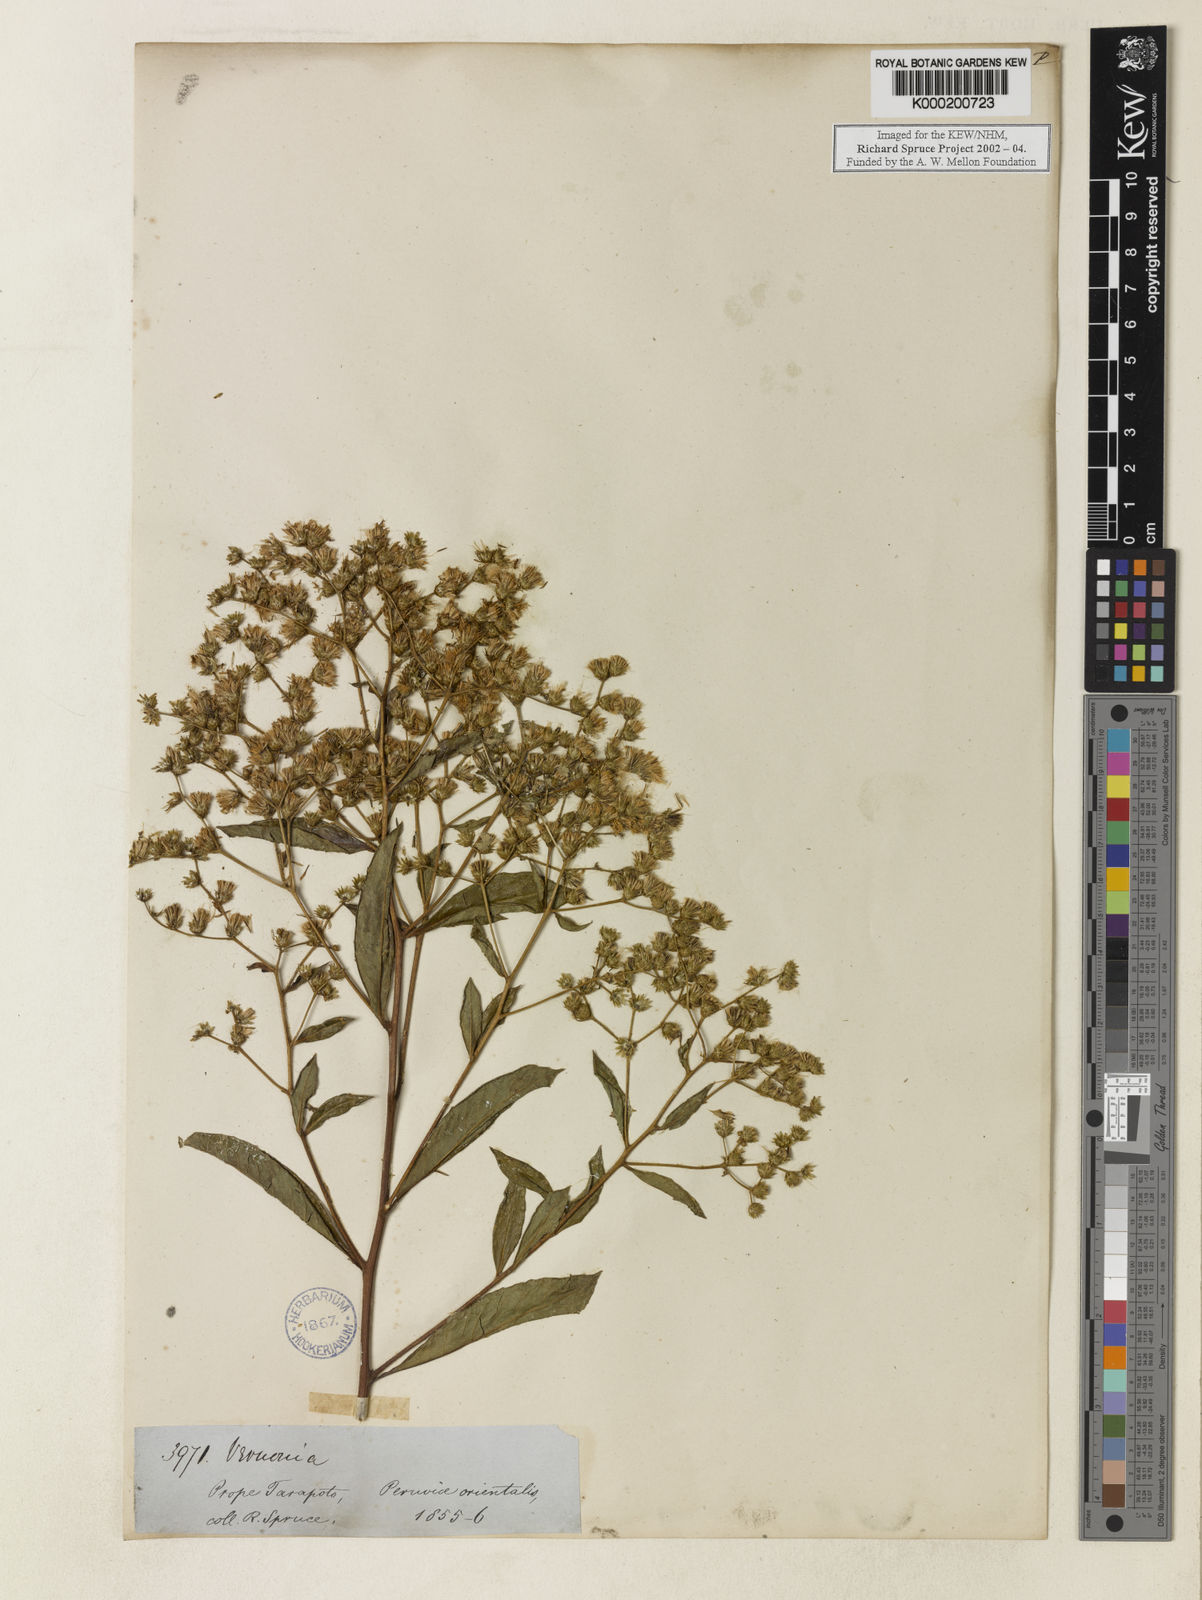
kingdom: Plantae
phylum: Tracheophyta
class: Magnoliopsida
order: Asterales
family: Asteraceae
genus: Vernonia
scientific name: Vernonia
